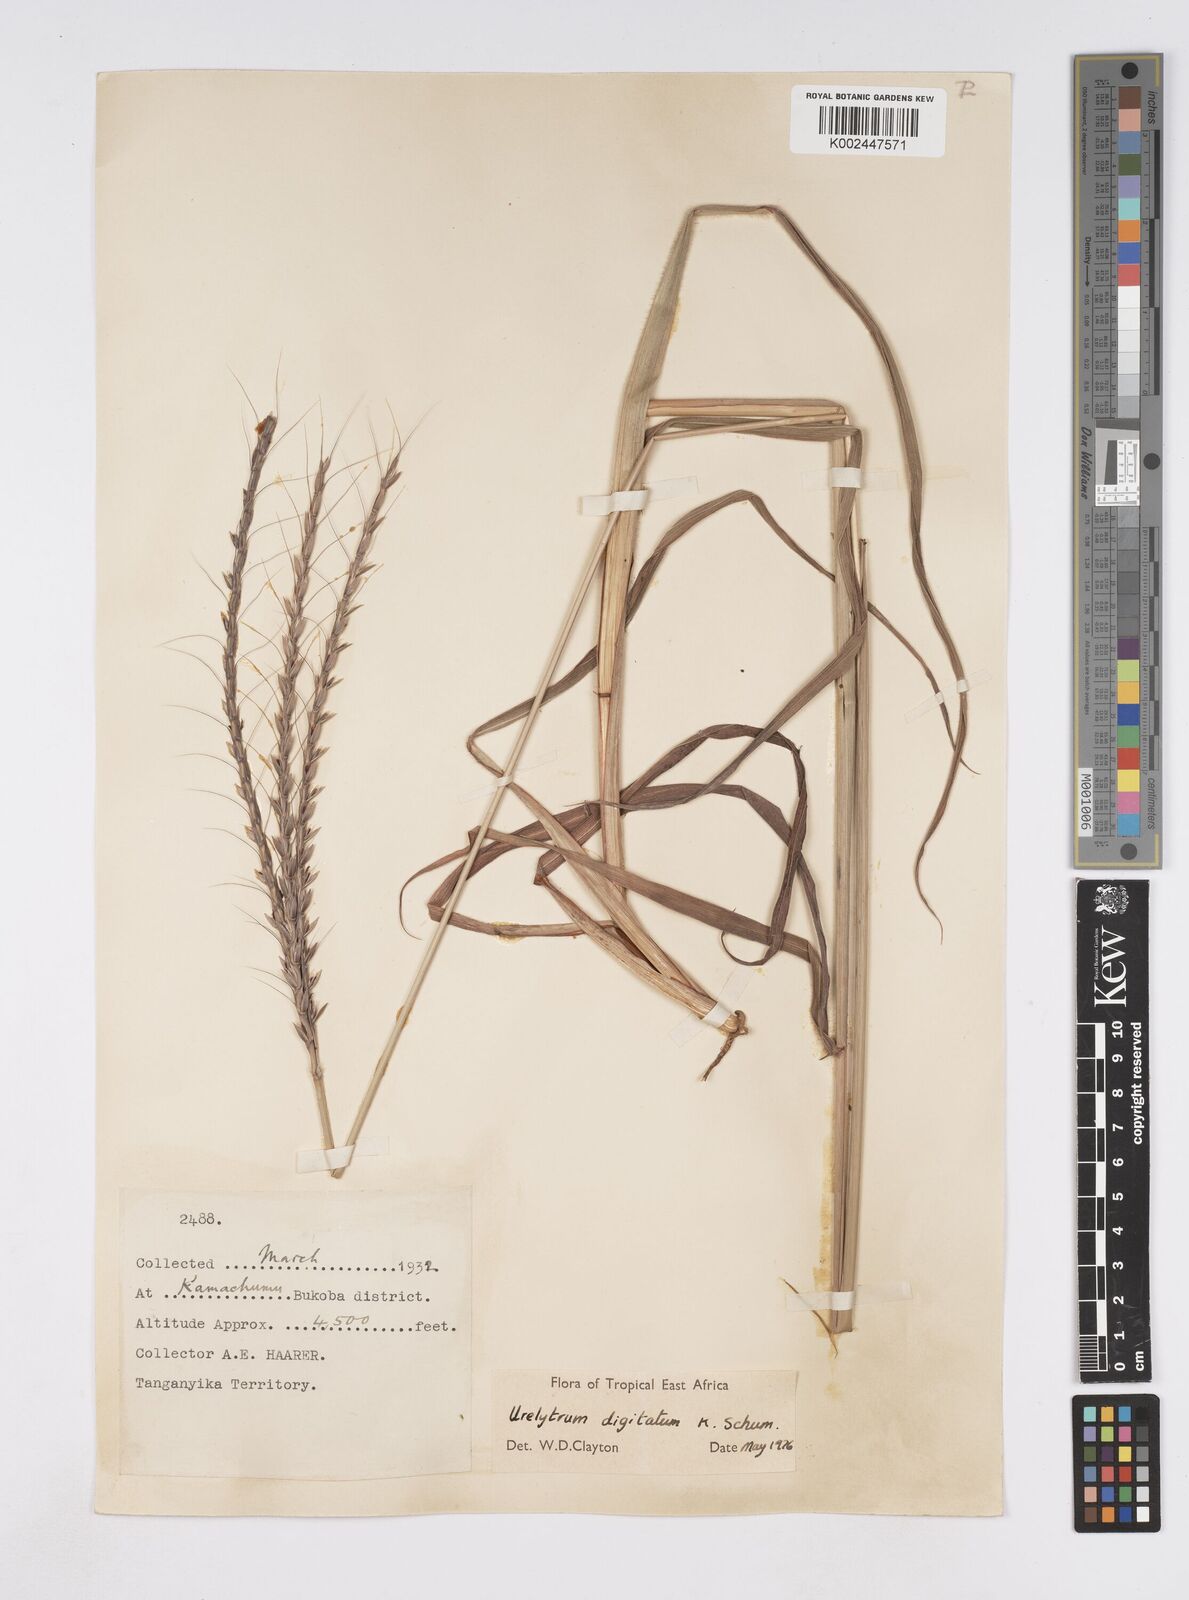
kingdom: Plantae
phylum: Tracheophyta
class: Liliopsida
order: Poales
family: Poaceae
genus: Urelytrum
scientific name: Urelytrum digitatum
